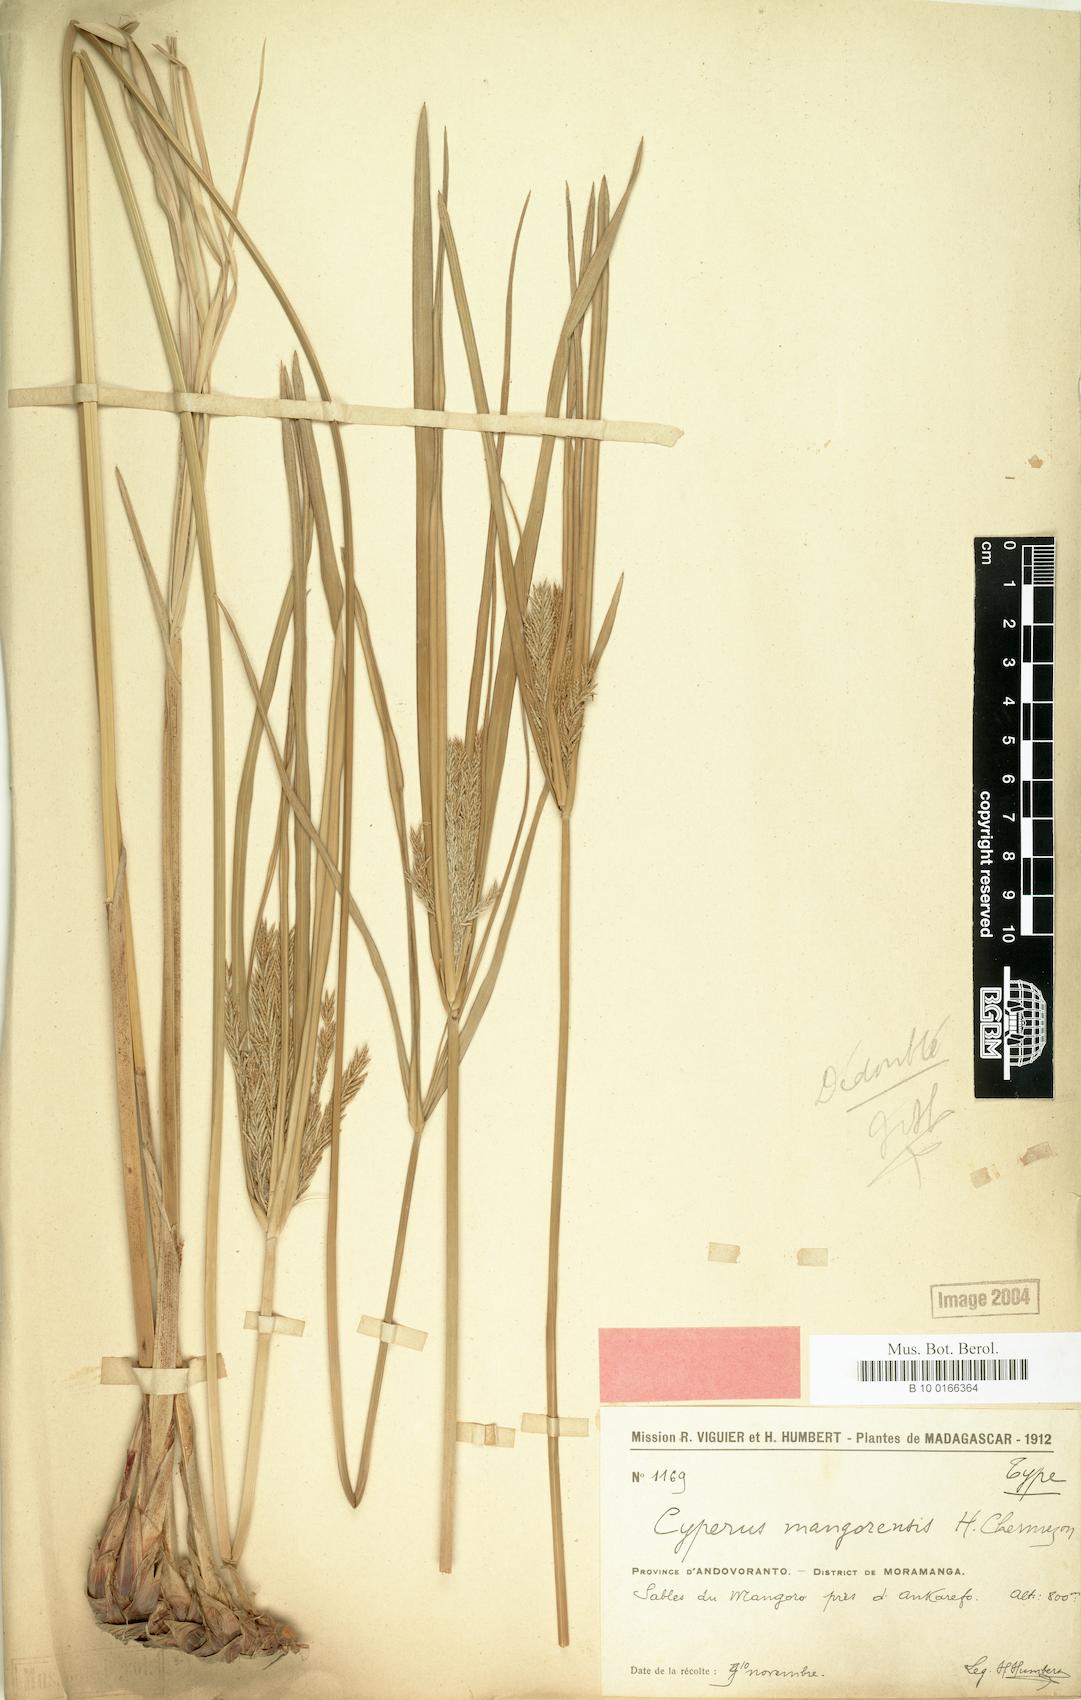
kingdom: Plantae
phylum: Tracheophyta
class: Liliopsida
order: Poales
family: Cyperaceae
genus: Cyperus
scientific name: Cyperus mangorensis
